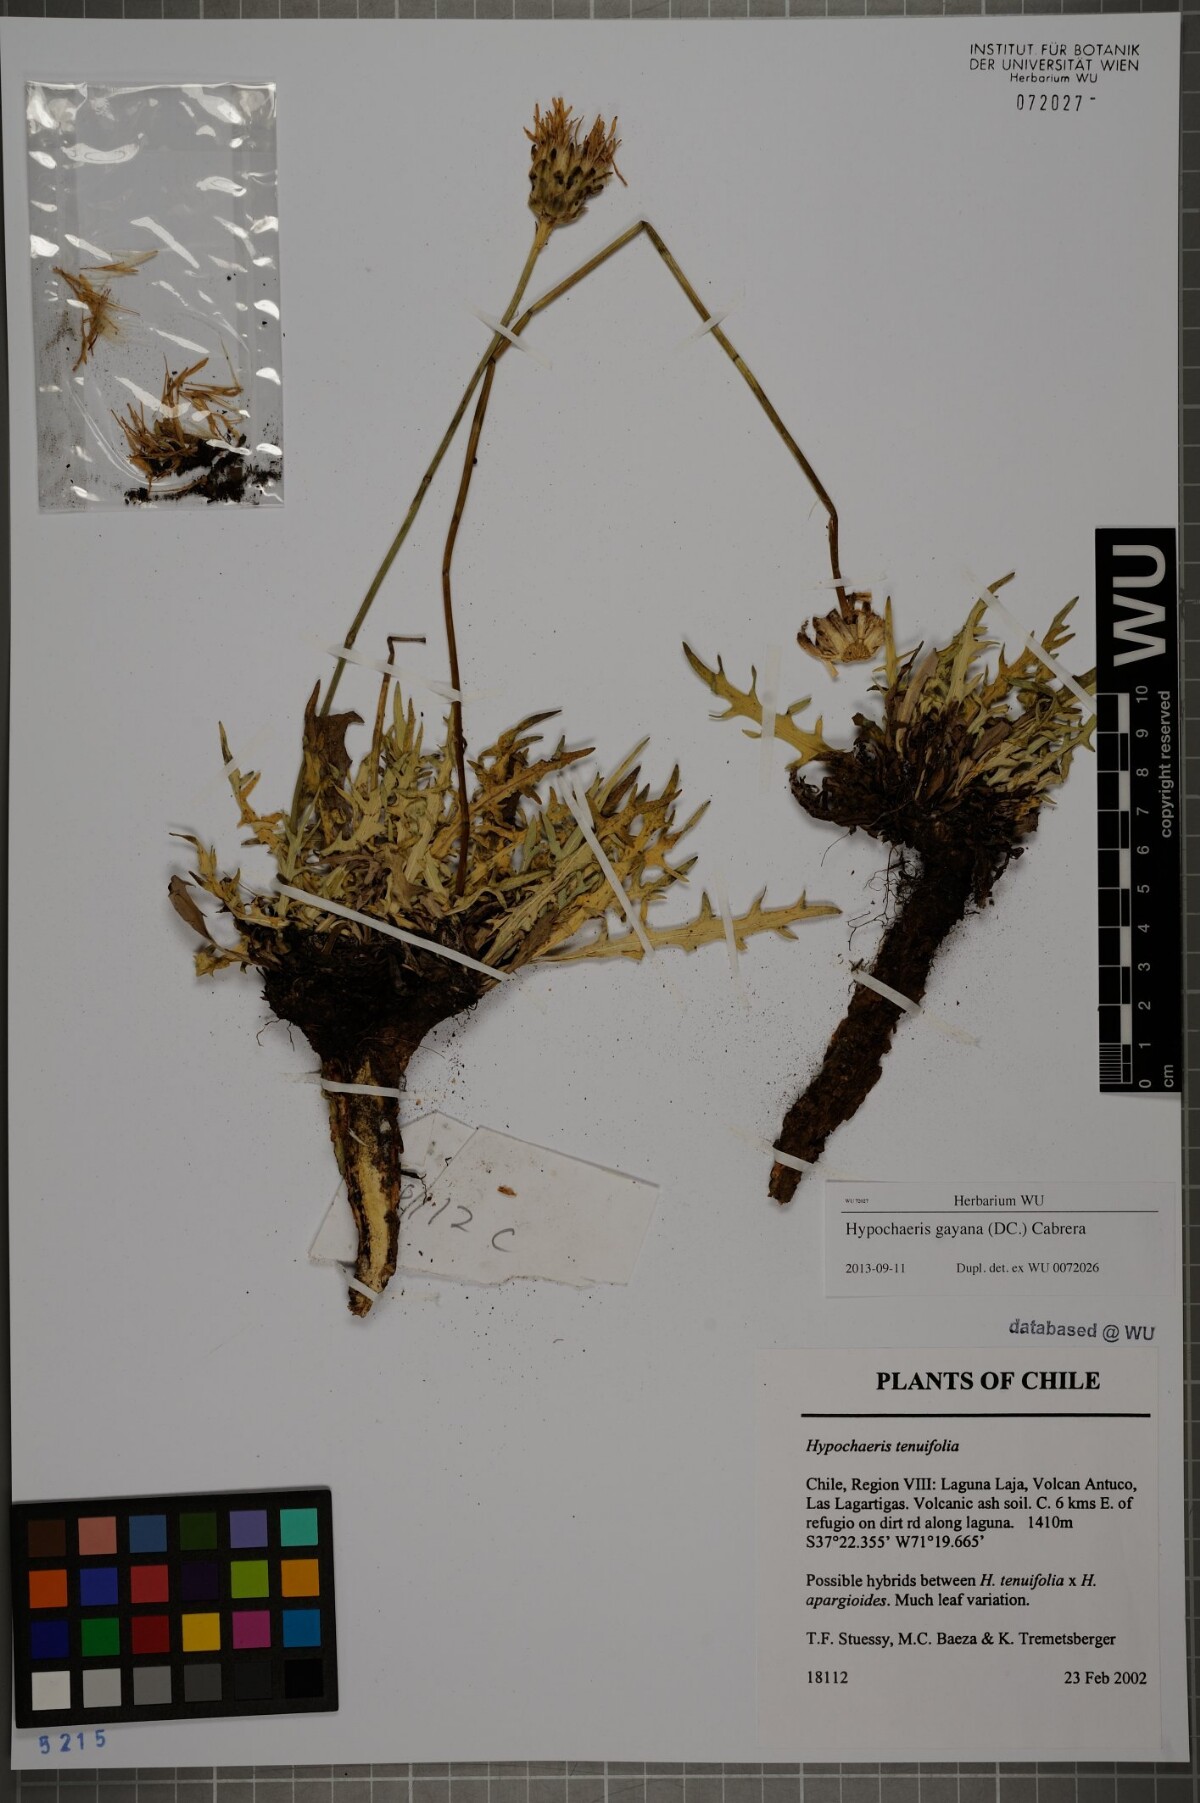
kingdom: Plantae
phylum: Tracheophyta
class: Magnoliopsida
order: Asterales
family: Asteraceae
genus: Hypochaeris
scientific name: Hypochaeris melanolepis
